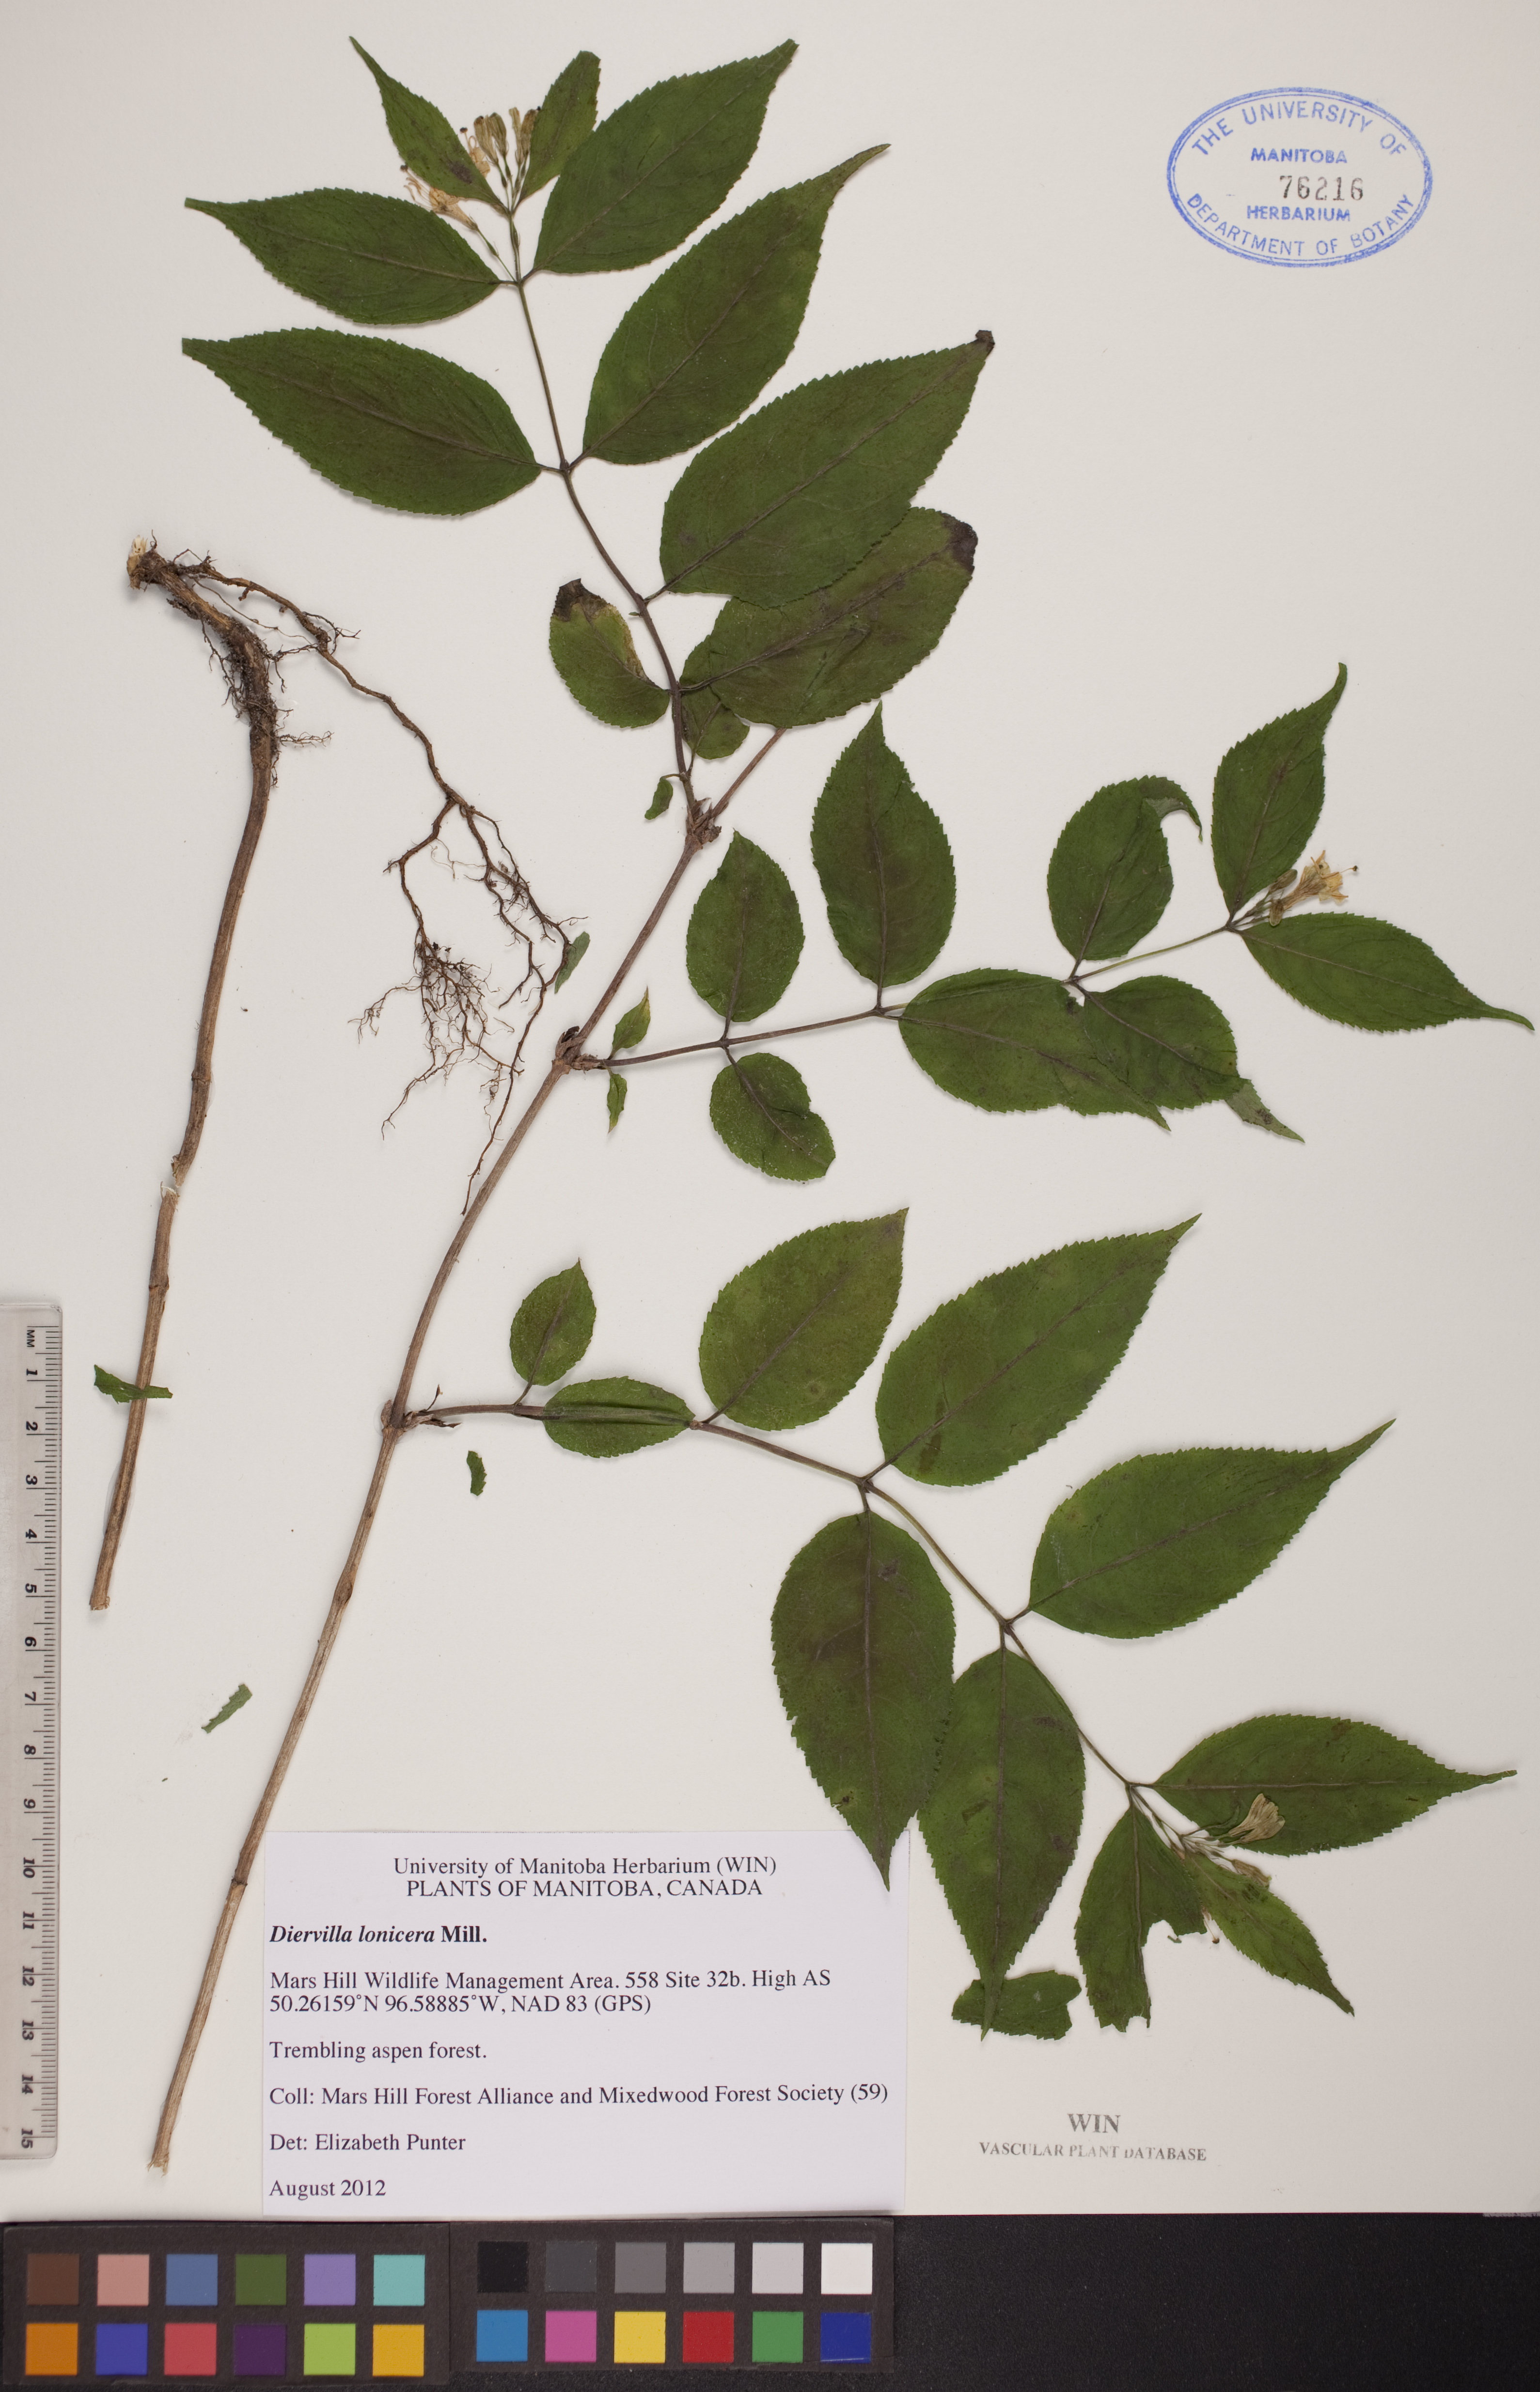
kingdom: Plantae
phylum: Tracheophyta
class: Magnoliopsida
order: Dipsacales
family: Caprifoliaceae
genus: Diervilla
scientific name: Diervilla lonicera
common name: Bush-honeysuckle
